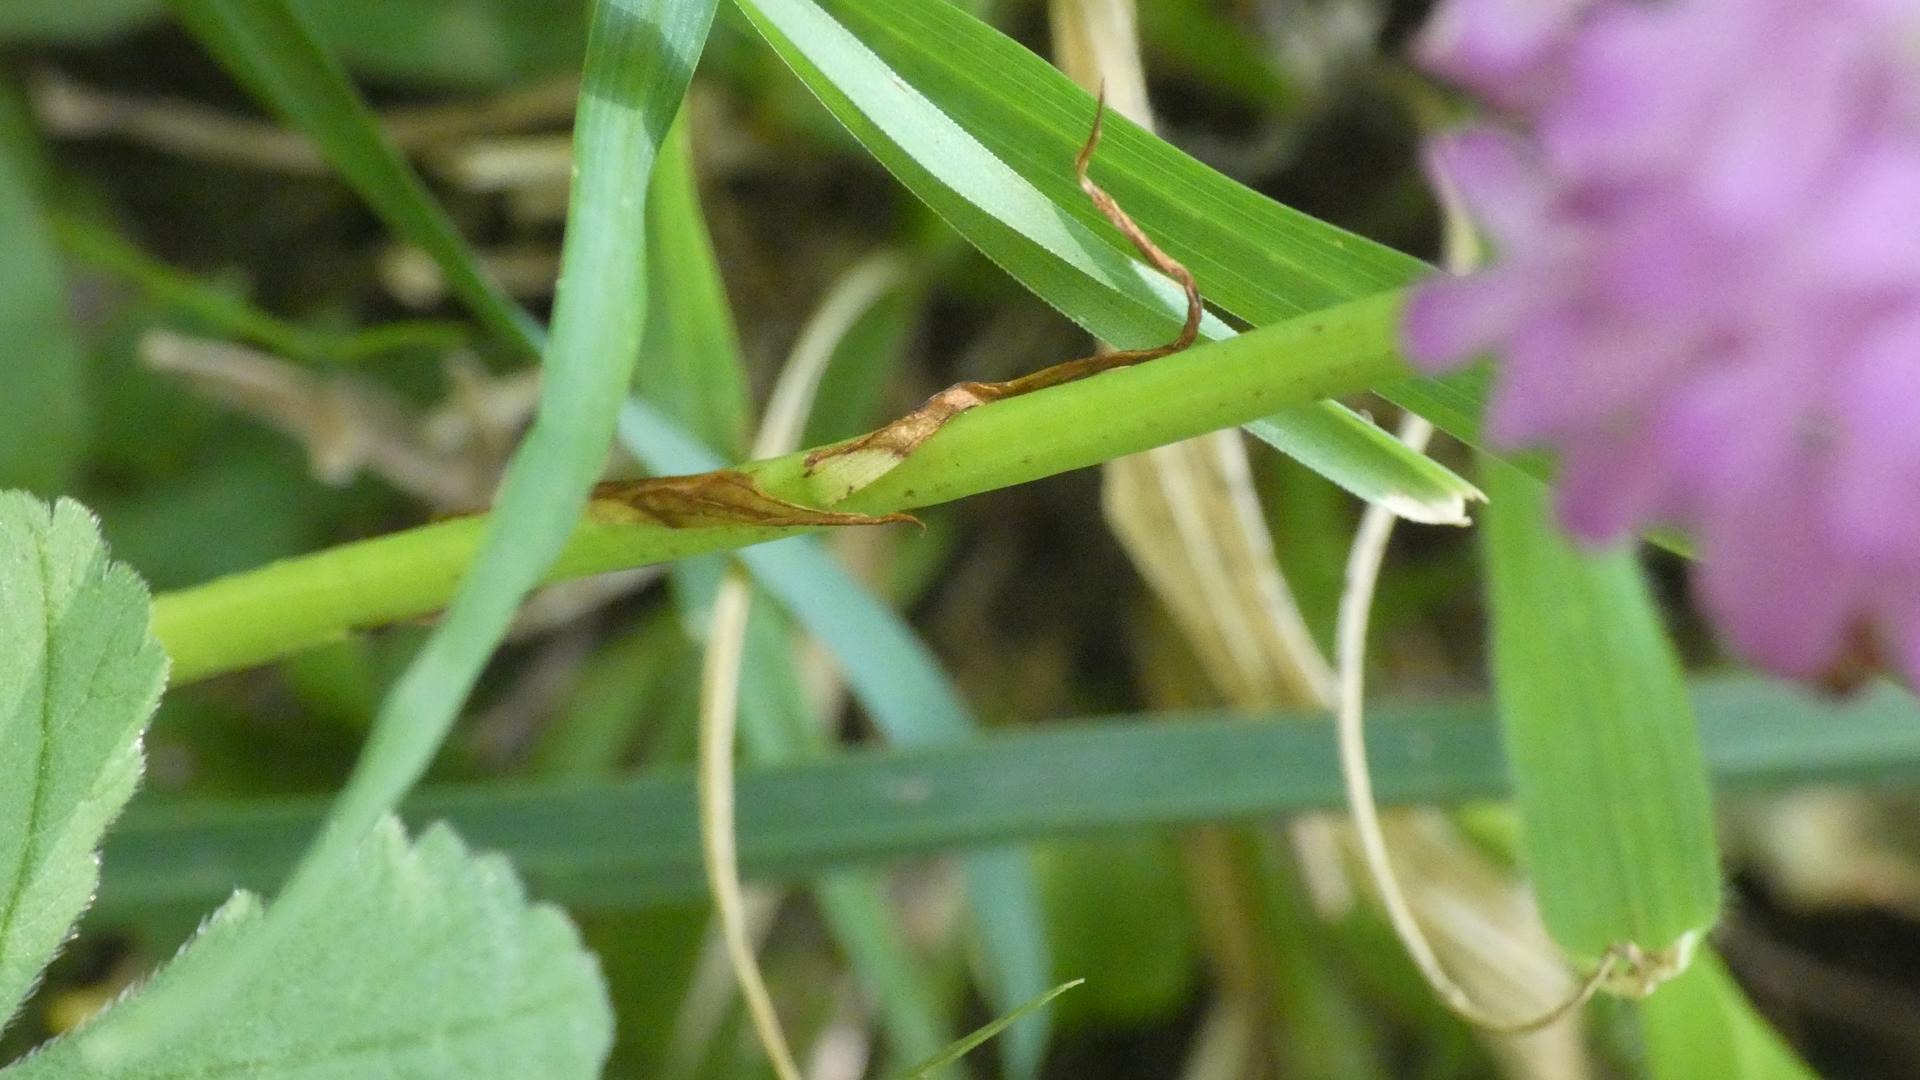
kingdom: Plantae
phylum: Tracheophyta
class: Liliopsida
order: Asparagales
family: Orchidaceae
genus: Anacamptis
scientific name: Anacamptis pyramidalis
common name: Horndrager
